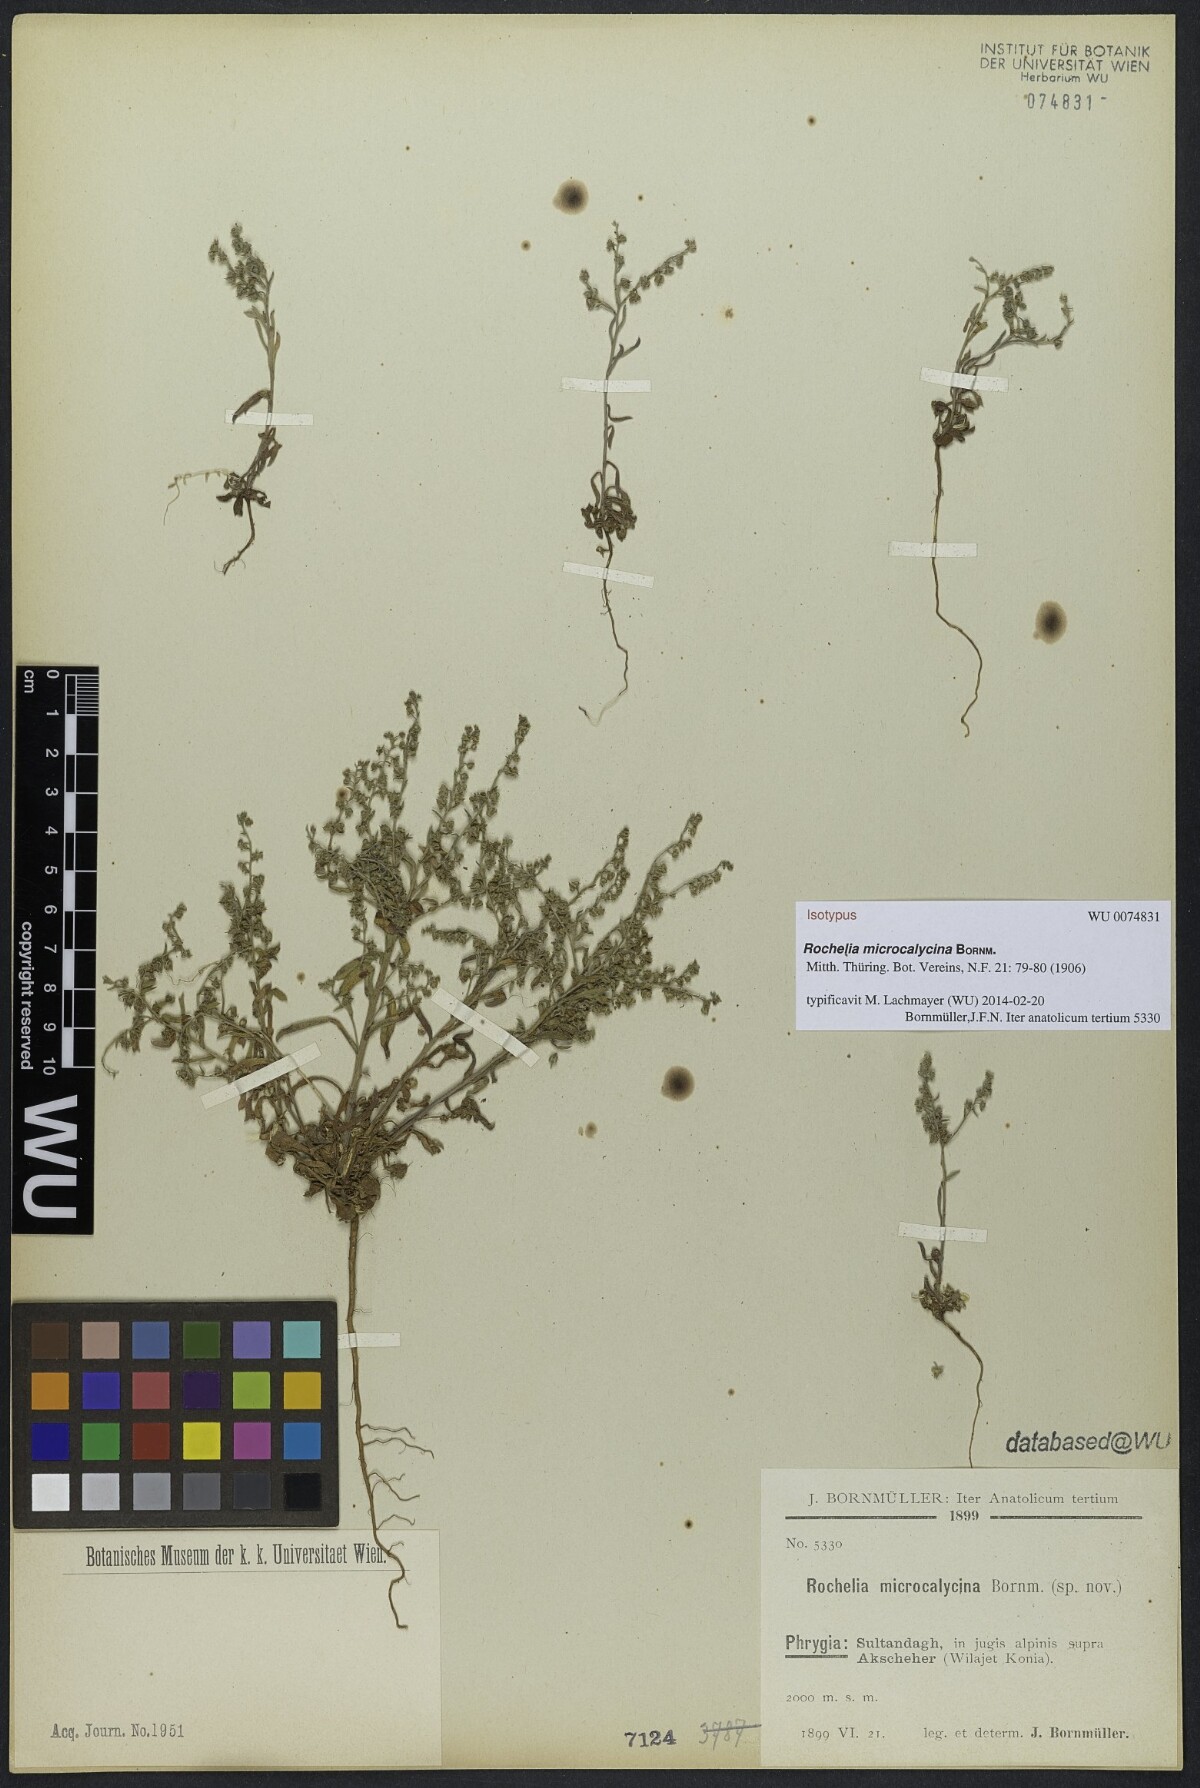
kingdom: Plantae
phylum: Tracheophyta
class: Magnoliopsida
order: Boraginales
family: Boraginaceae
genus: Rochelia
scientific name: Rochelia disperma
